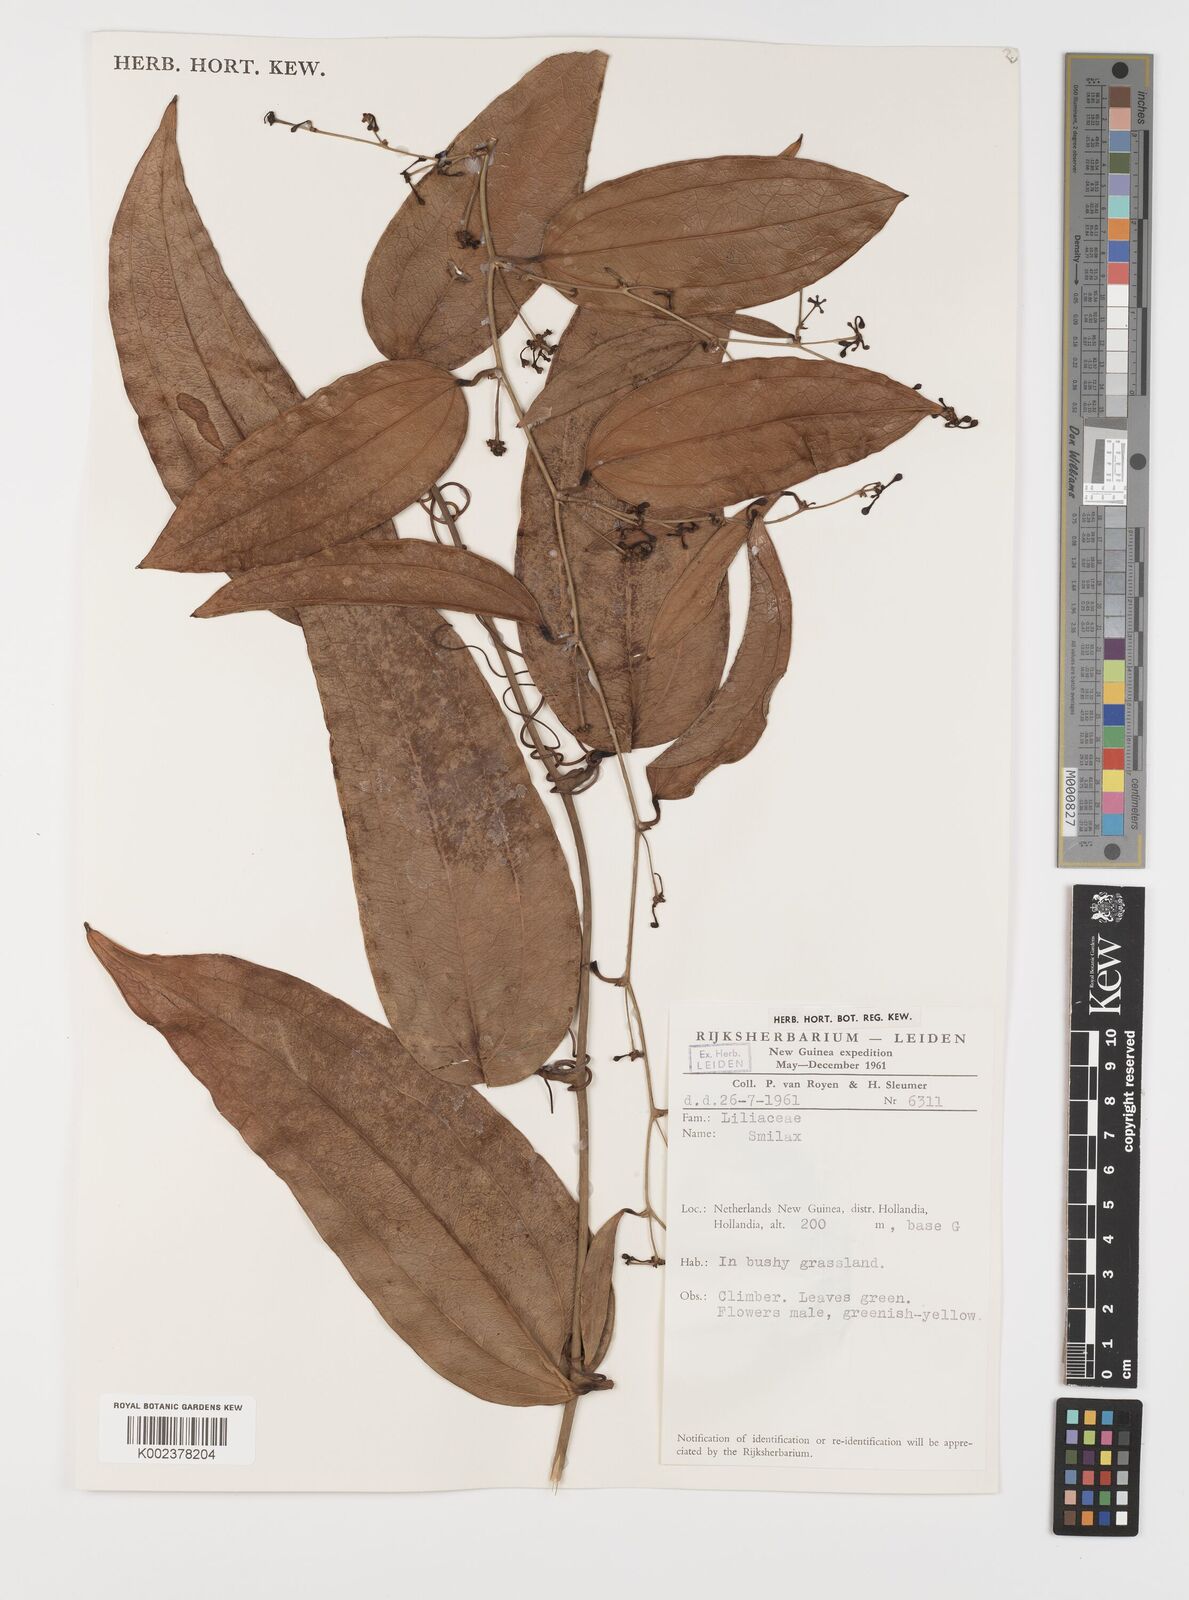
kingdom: Plantae
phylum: Tracheophyta
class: Liliopsida
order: Liliales
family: Smilacaceae
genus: Smilax
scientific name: Smilax
